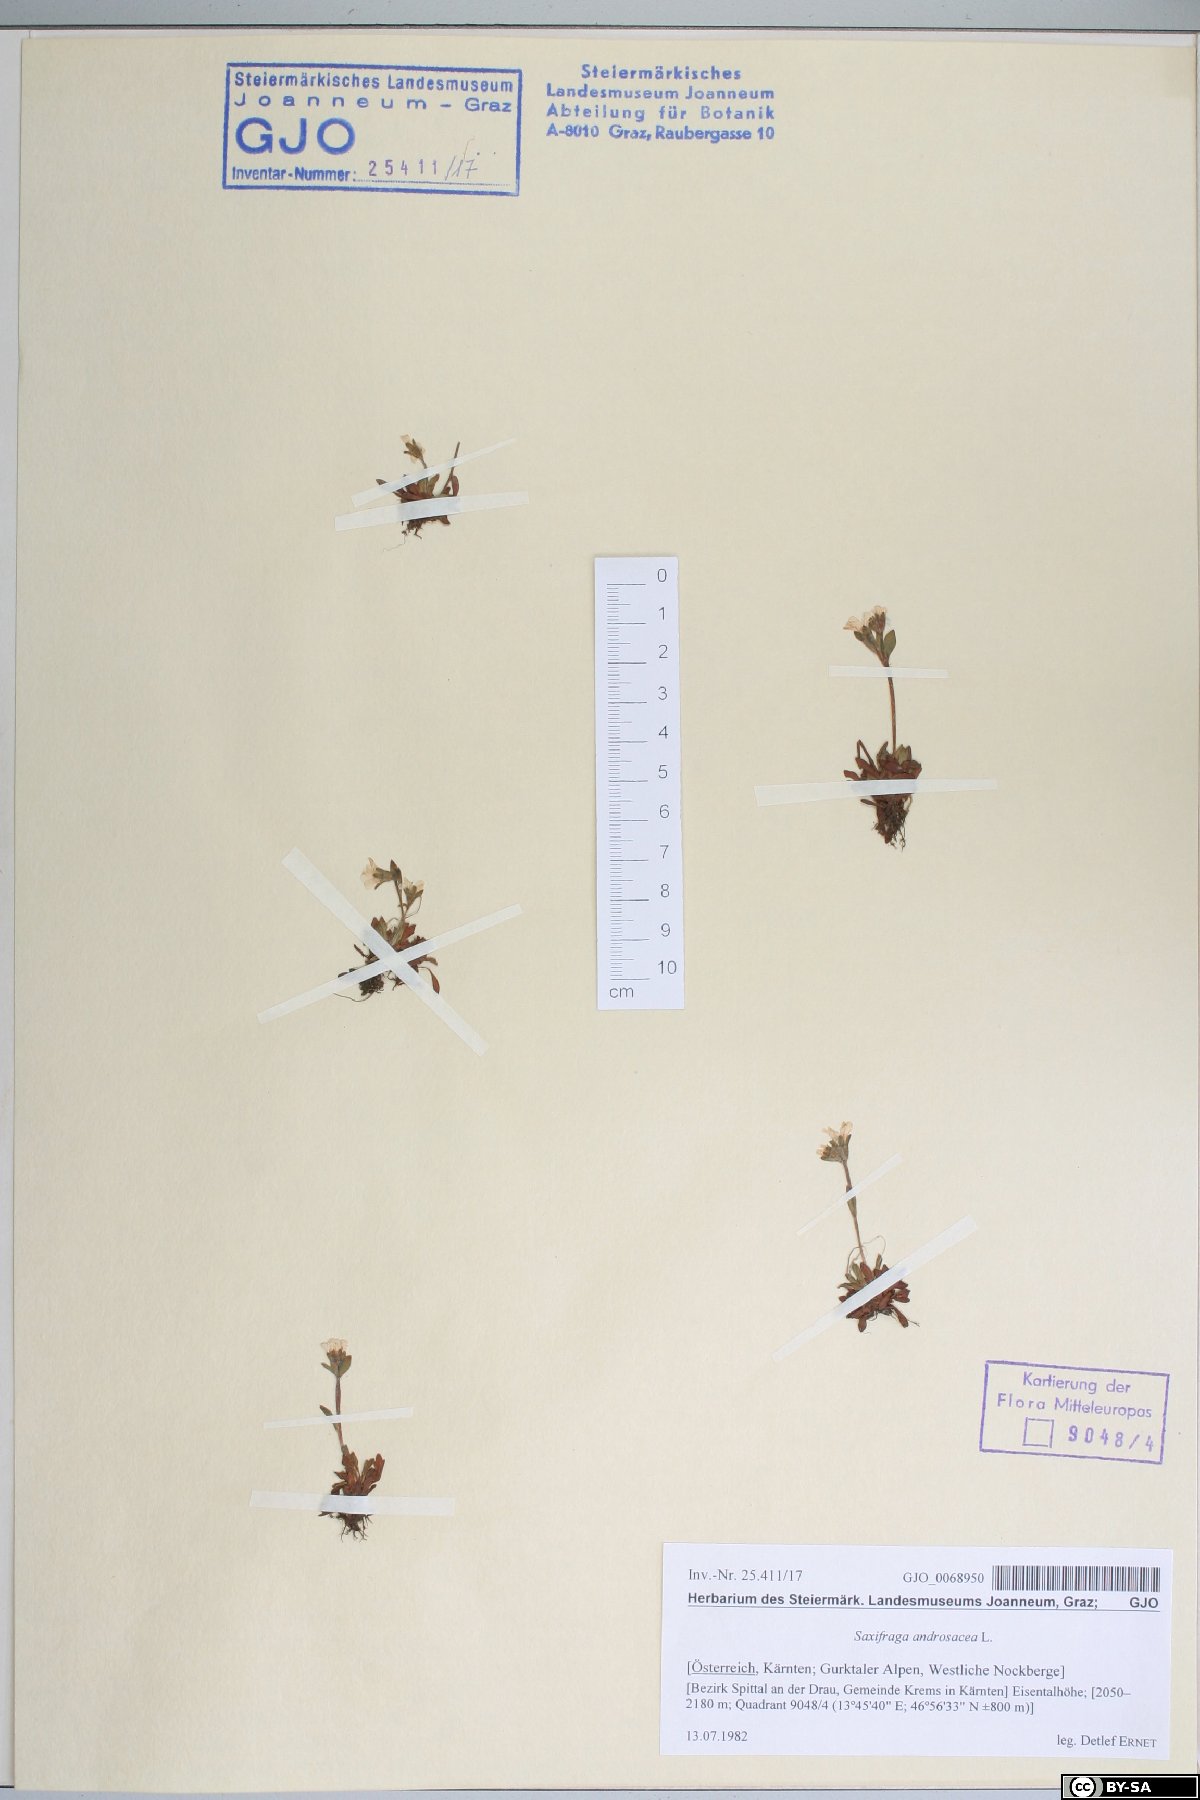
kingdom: Plantae
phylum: Tracheophyta
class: Magnoliopsida
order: Saxifragales
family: Saxifragaceae
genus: Saxifraga
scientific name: Saxifraga androsacea
